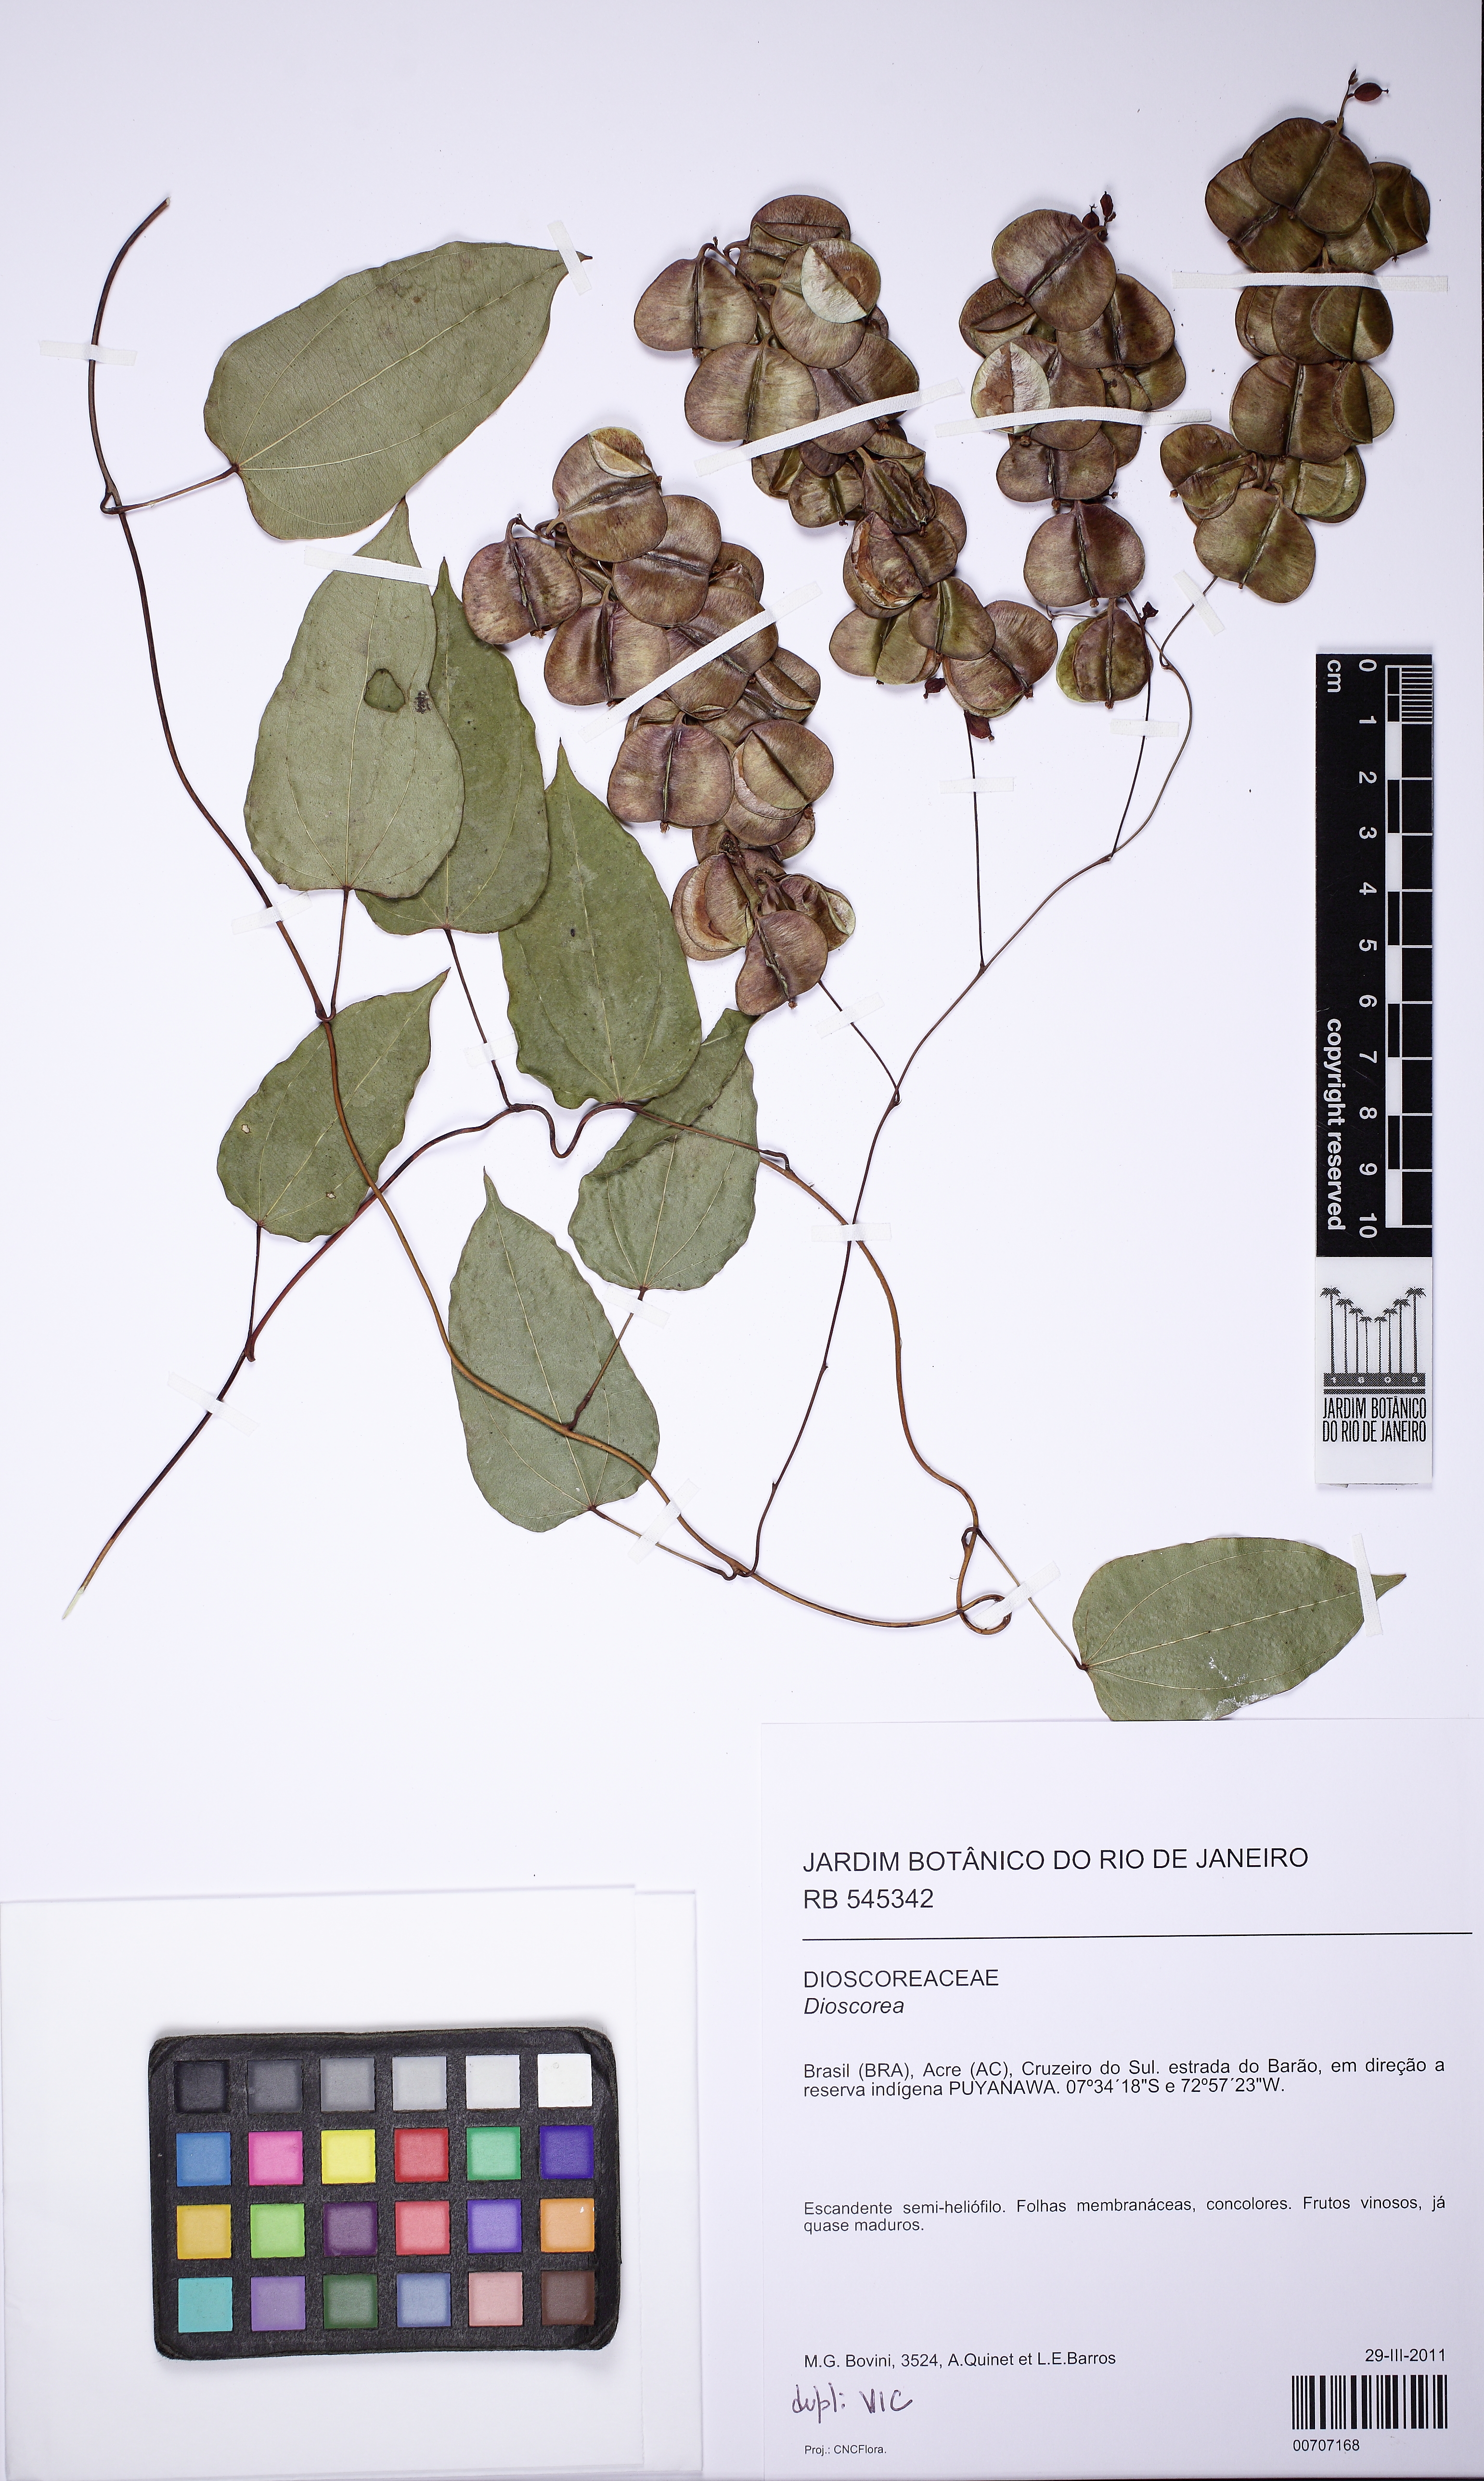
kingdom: Plantae
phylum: Tracheophyta
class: Liliopsida
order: Dioscoreales
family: Dioscoreaceae
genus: Dioscorea
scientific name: Dioscorea
